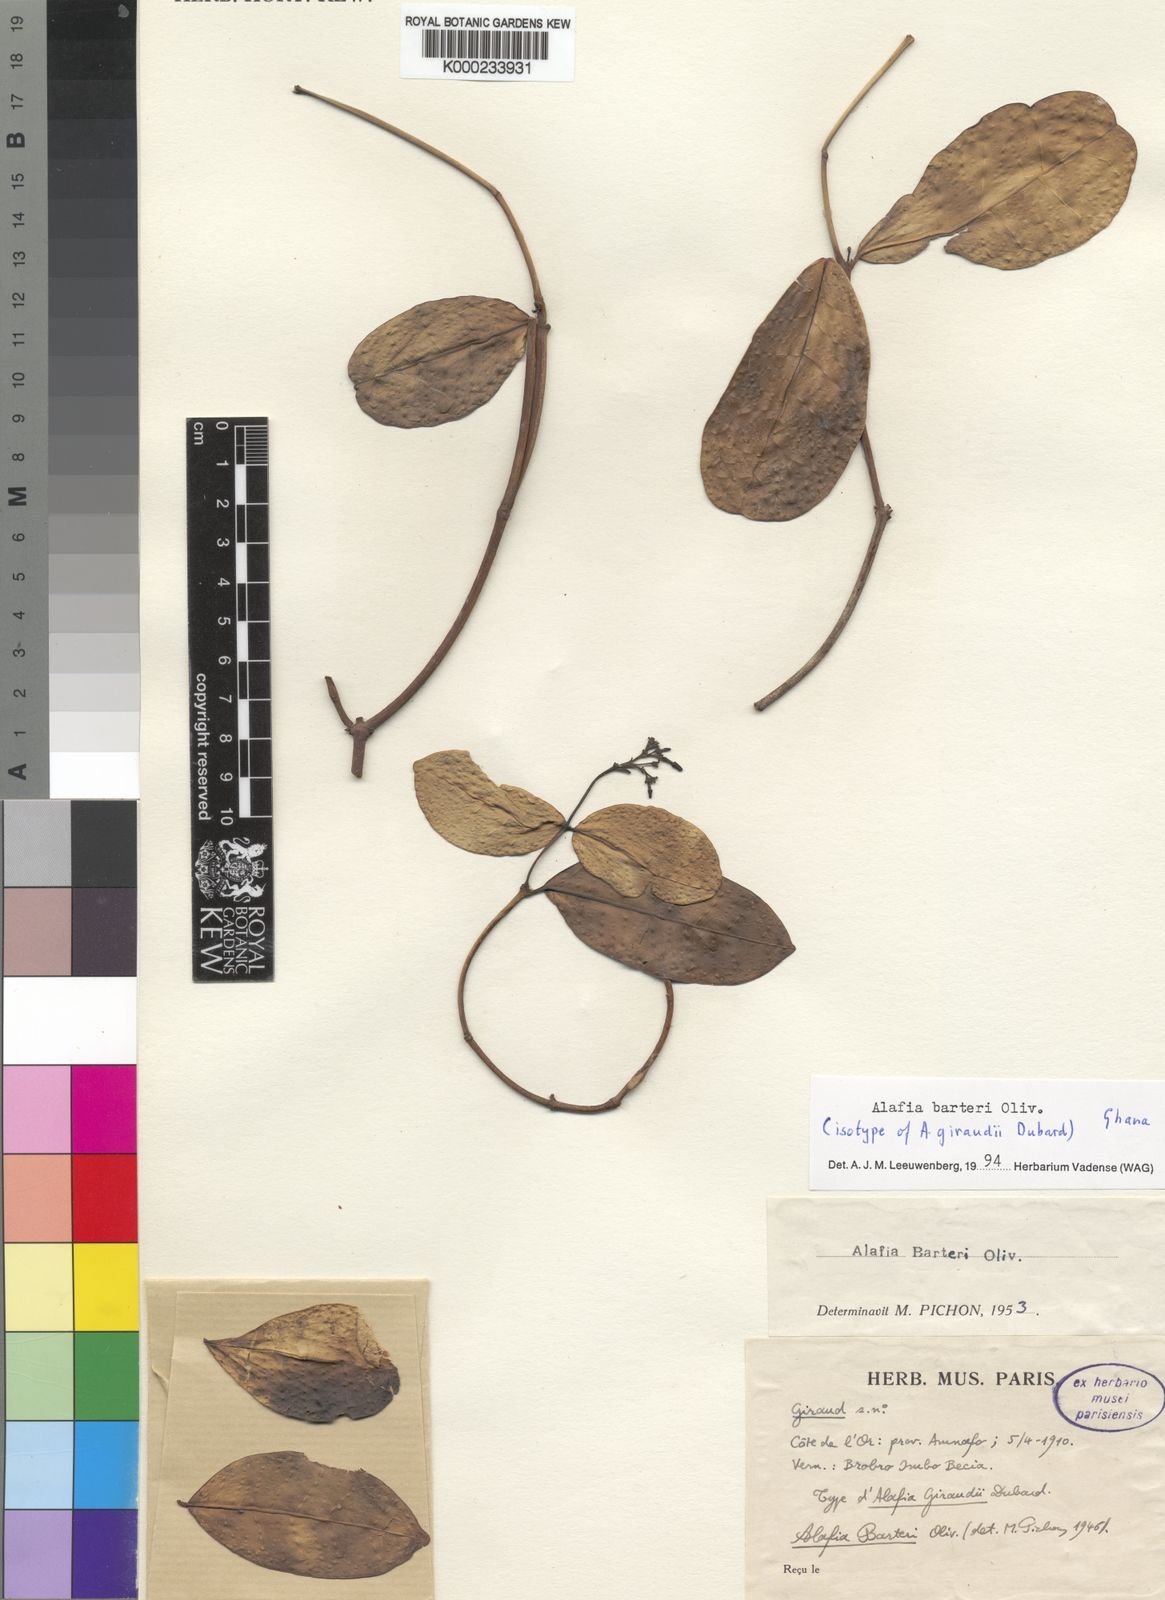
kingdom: Plantae
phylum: Tracheophyta
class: Magnoliopsida
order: Gentianales
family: Apocynaceae
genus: Alafia
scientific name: Alafia barteri
